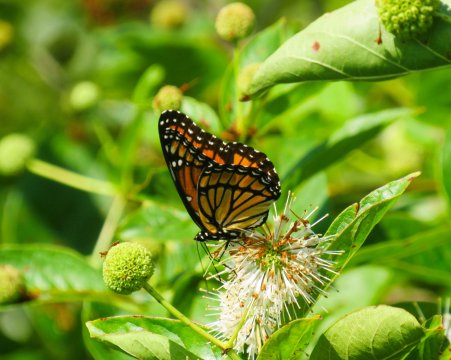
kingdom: Animalia
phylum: Arthropoda
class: Insecta
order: Lepidoptera
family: Nymphalidae
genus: Limenitis
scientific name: Limenitis archippus
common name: Viceroy
